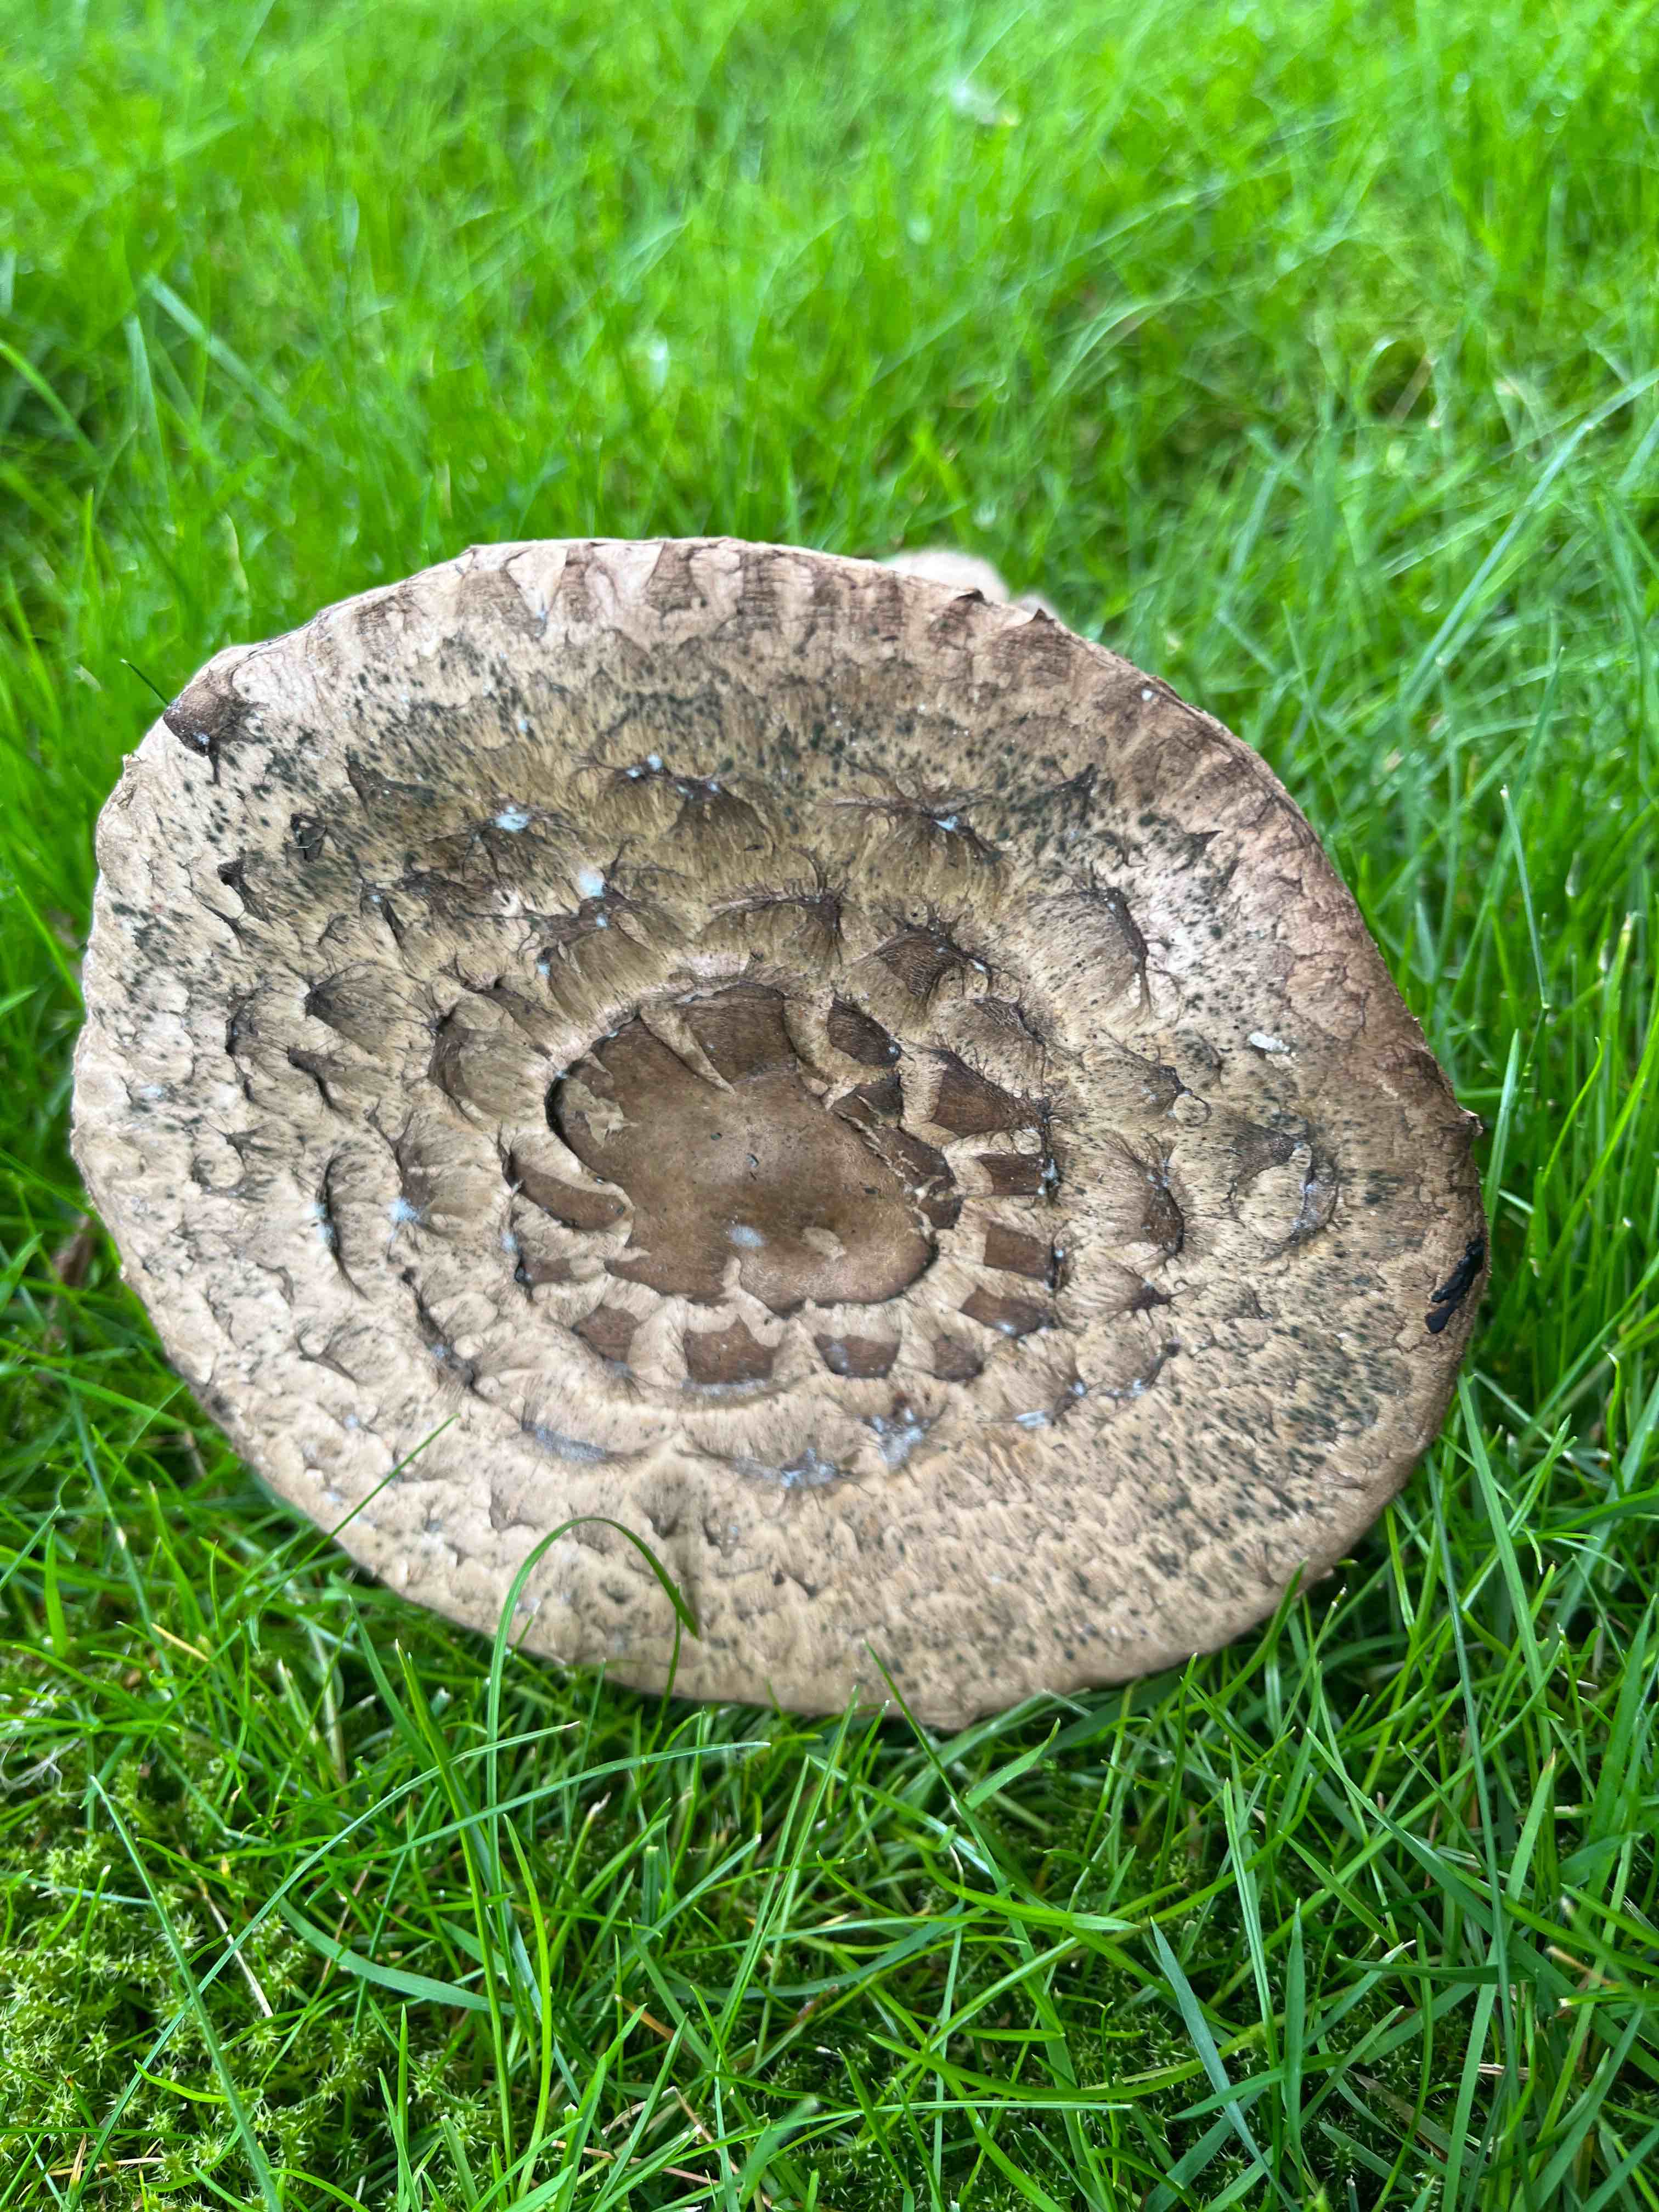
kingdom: Fungi
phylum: Basidiomycota
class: Agaricomycetes
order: Agaricales
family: Agaricaceae
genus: Chlorophyllum
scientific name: Chlorophyllum
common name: rabarberhat
